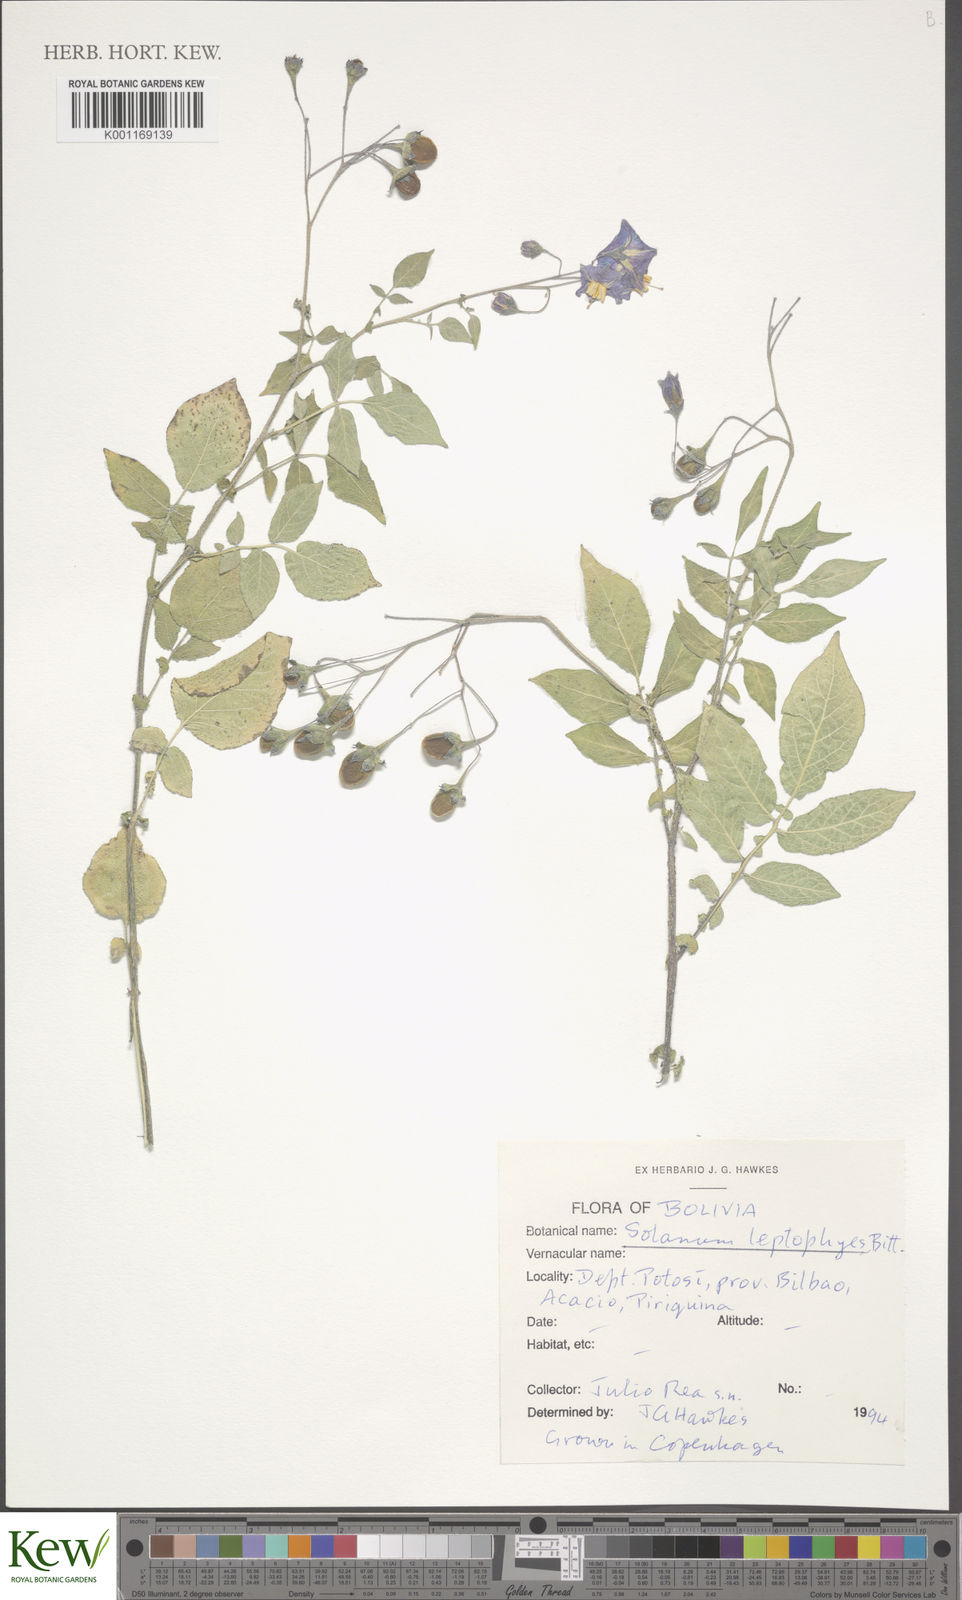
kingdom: Plantae
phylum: Tracheophyta
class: Magnoliopsida
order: Solanales
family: Solanaceae
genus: Solanum
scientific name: Solanum brevicaule
